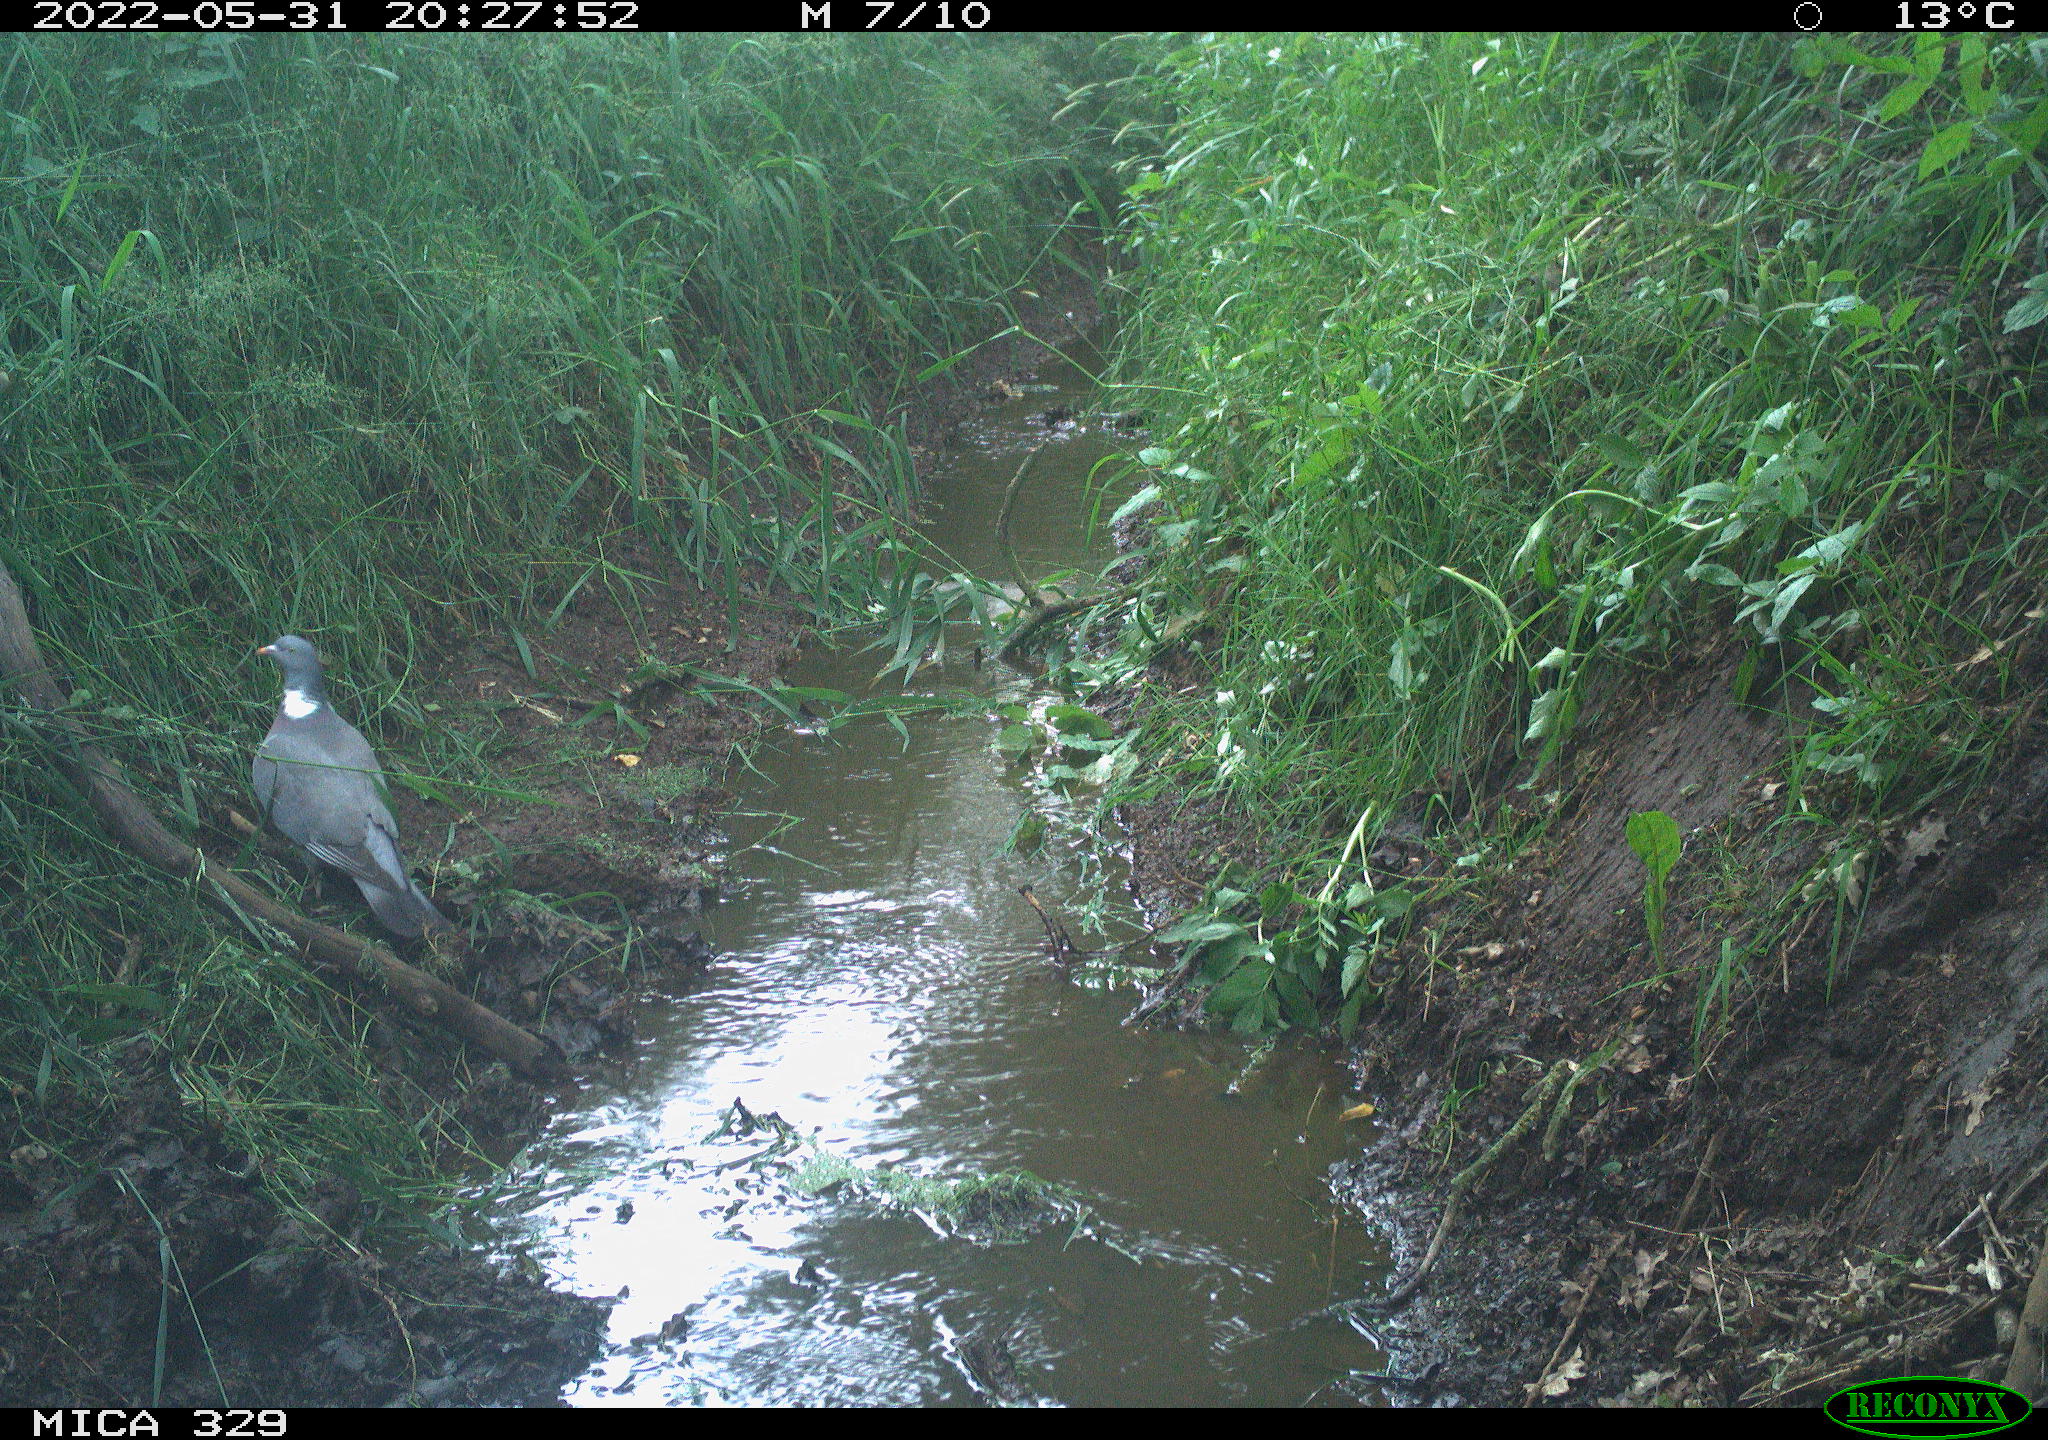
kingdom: Animalia
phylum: Chordata
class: Aves
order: Columbiformes
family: Columbidae
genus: Columba
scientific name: Columba palumbus
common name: Common wood pigeon
